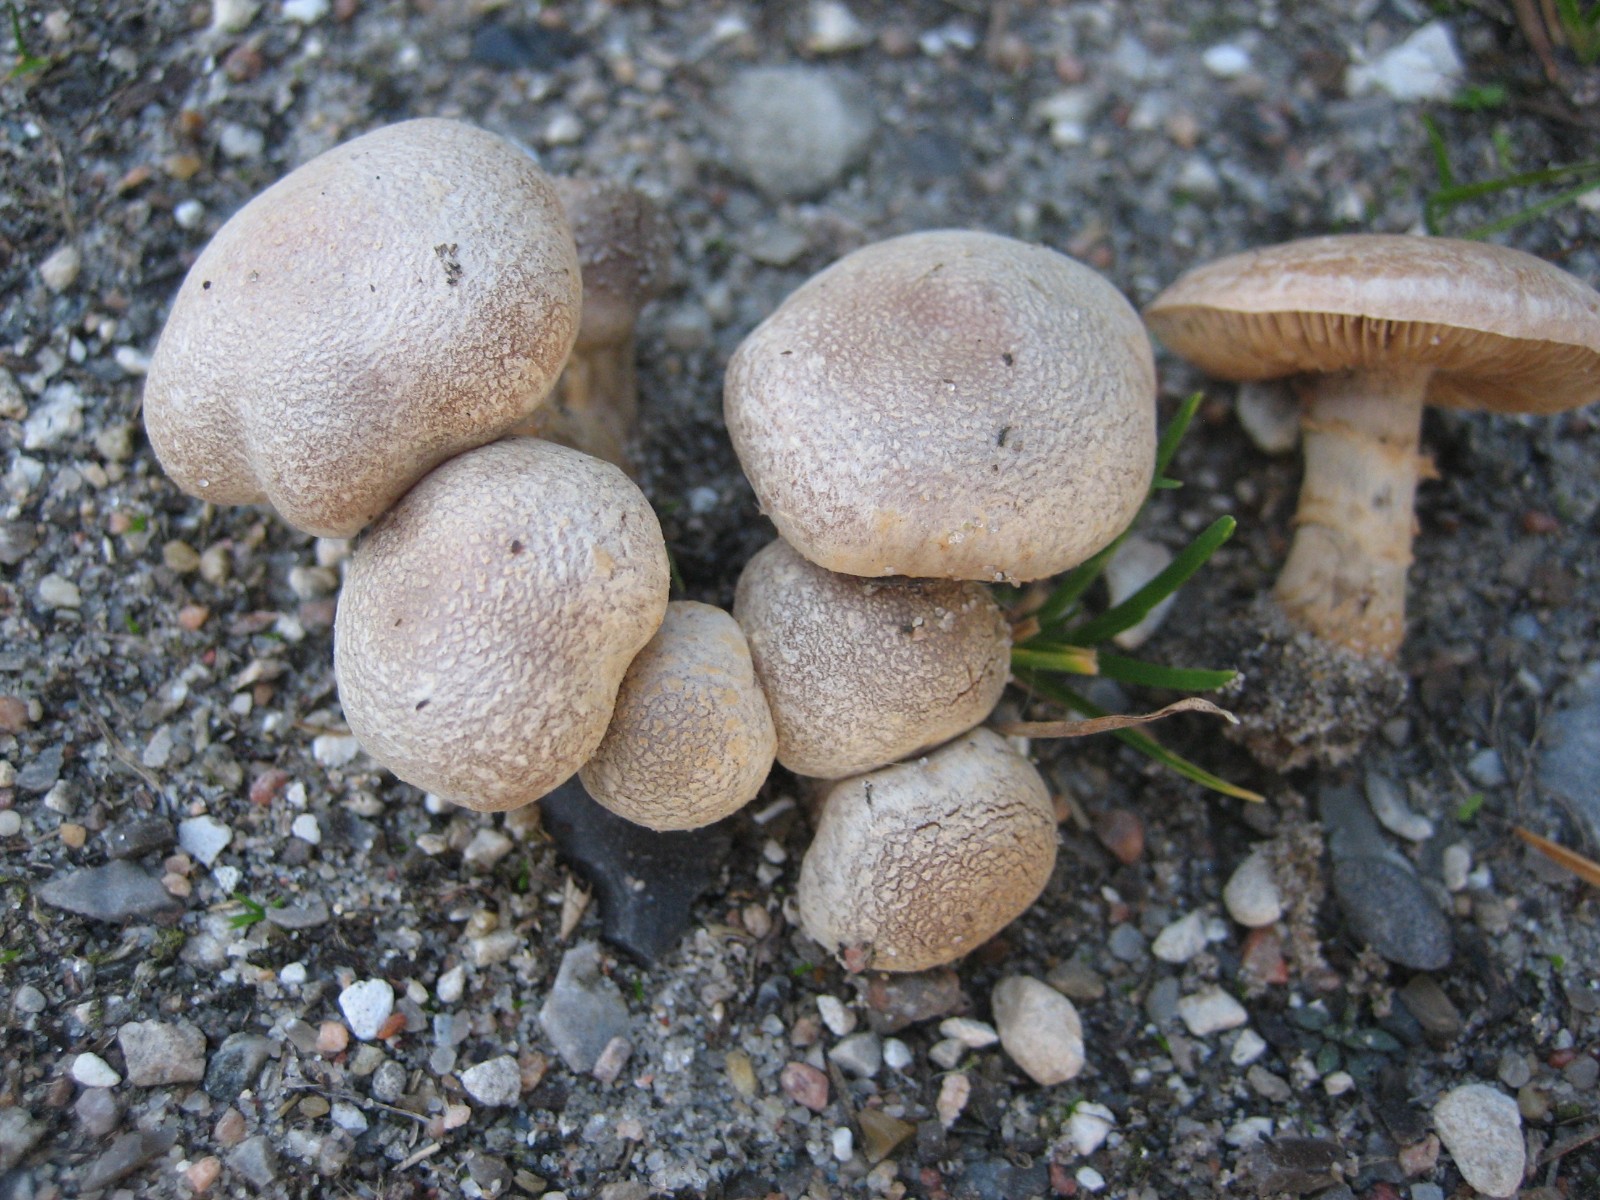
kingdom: Fungi
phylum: Basidiomycota
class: Agaricomycetes
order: Agaricales
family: Inocybaceae
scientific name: Inocybaceae
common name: trævlhatfamilien
